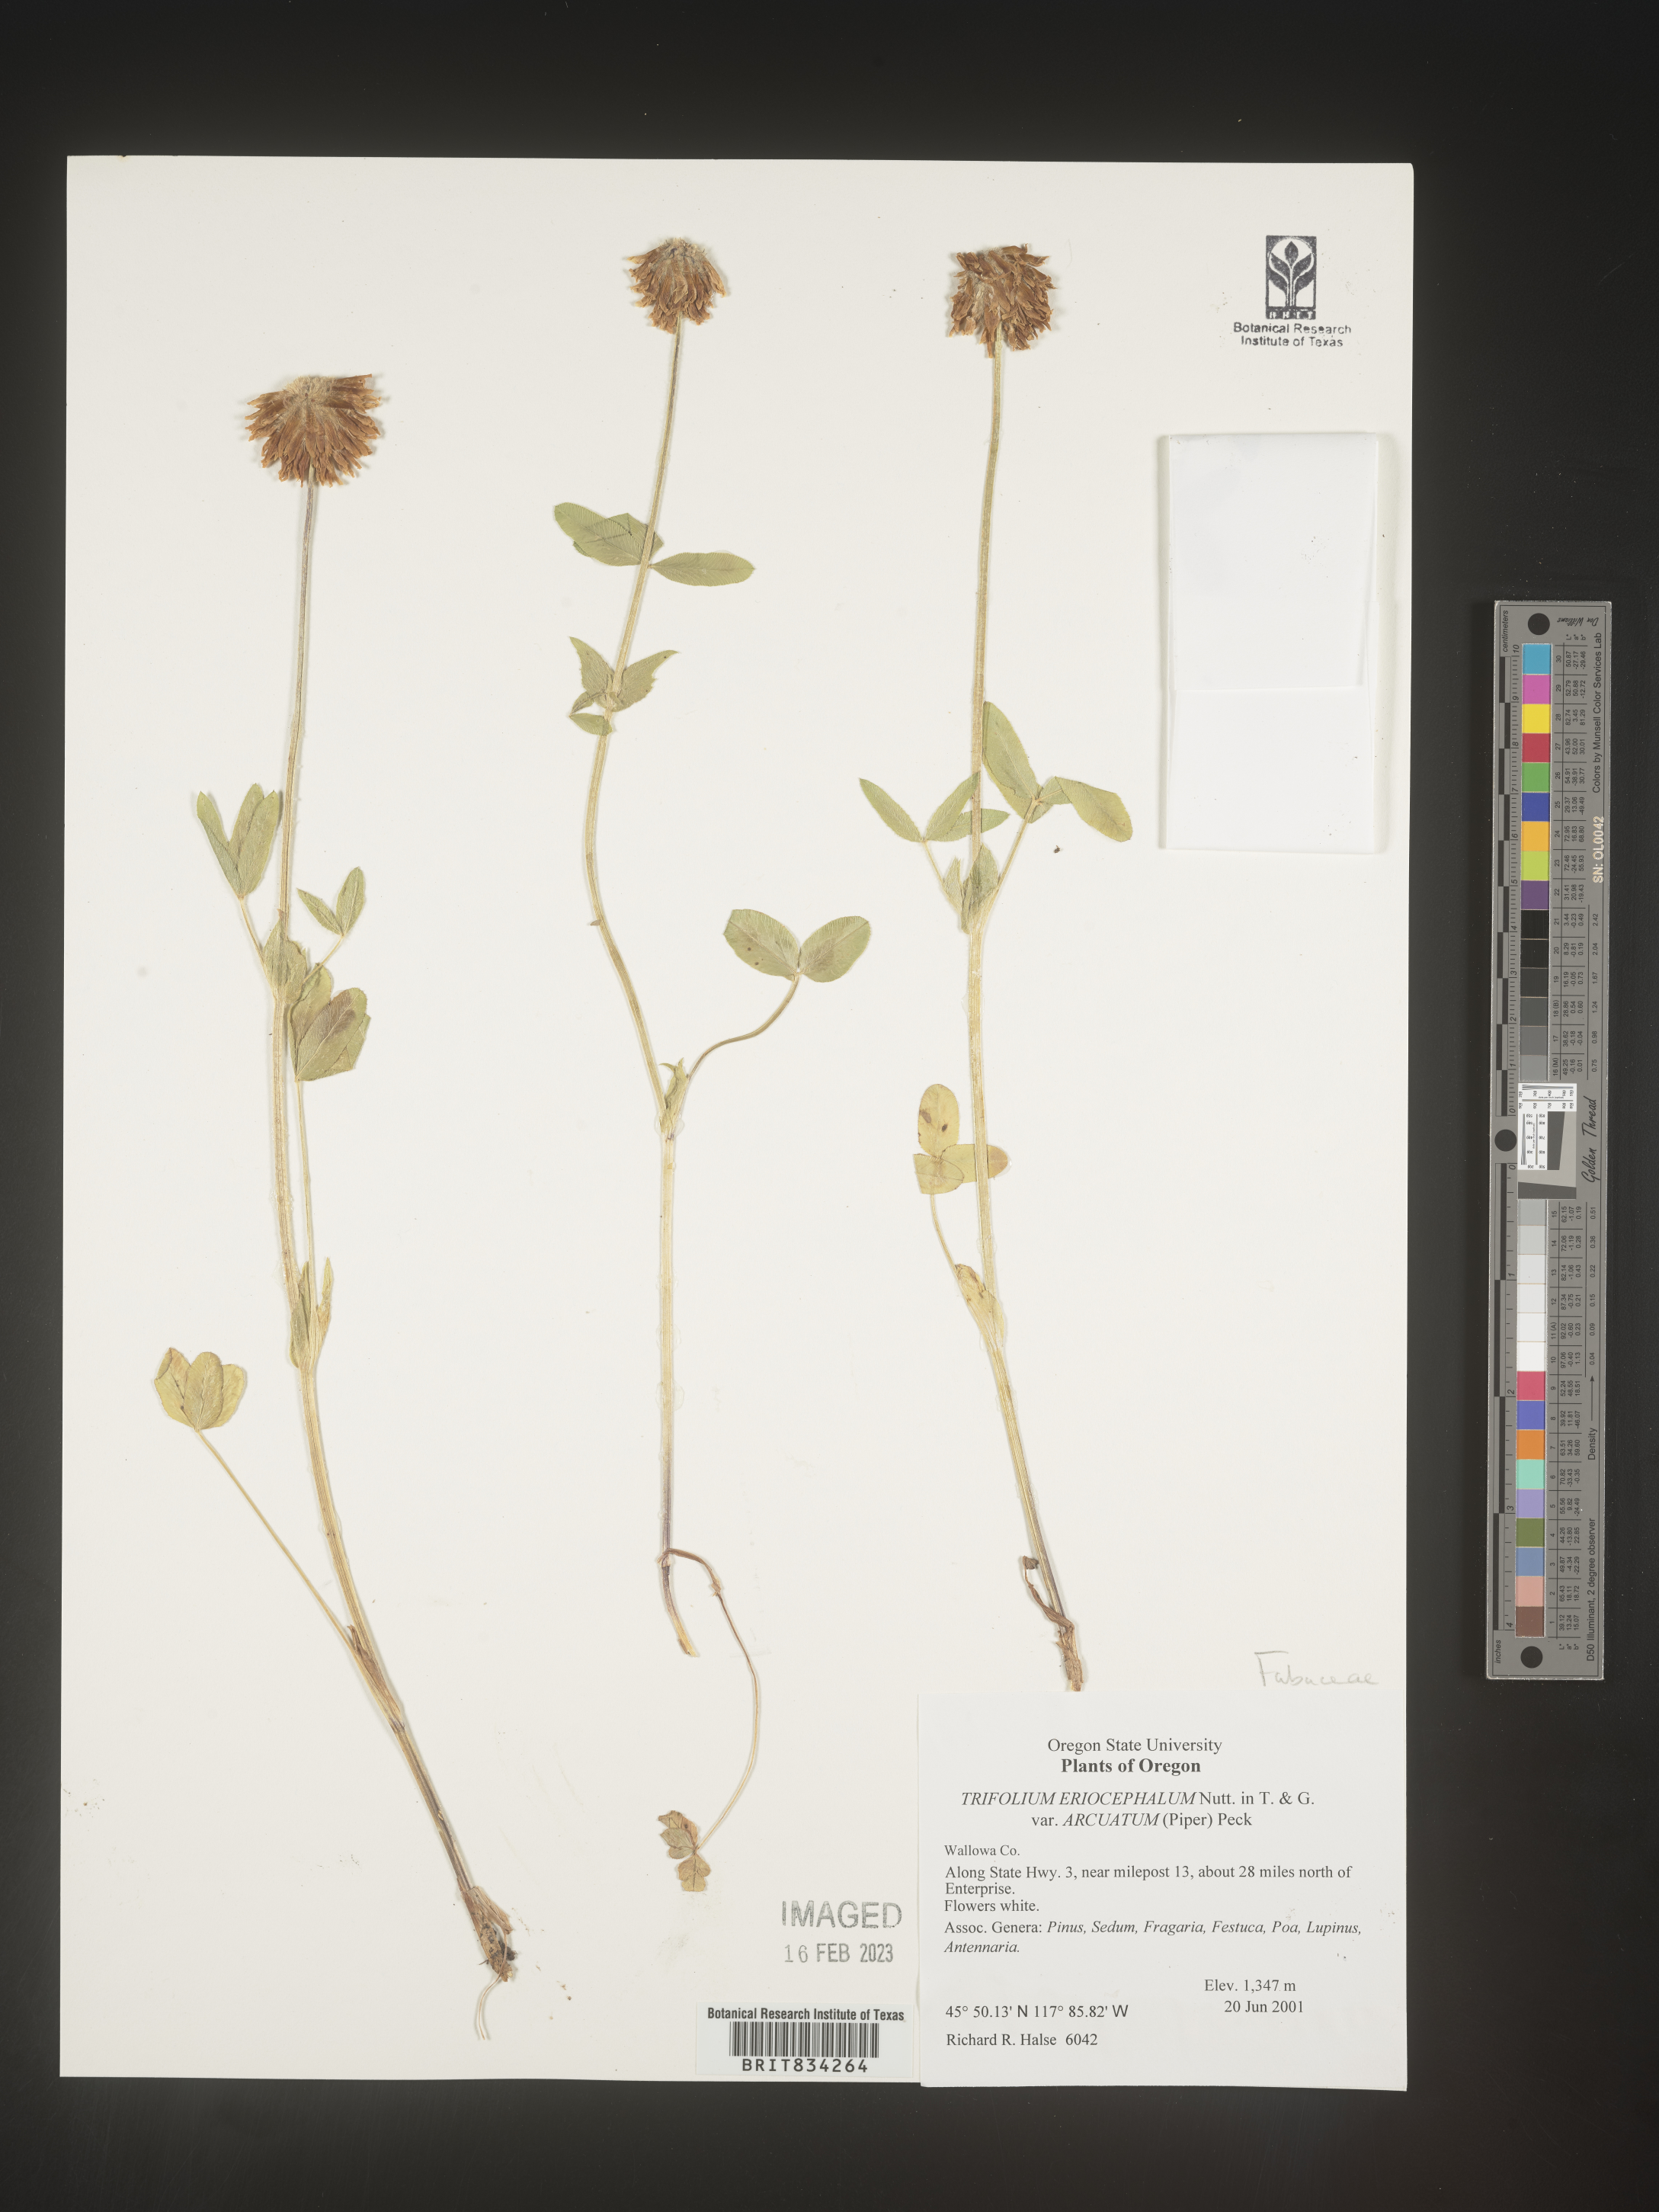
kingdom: Plantae
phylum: Tracheophyta
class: Magnoliopsida
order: Fabales
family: Fabaceae
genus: Trifolium
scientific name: Trifolium
